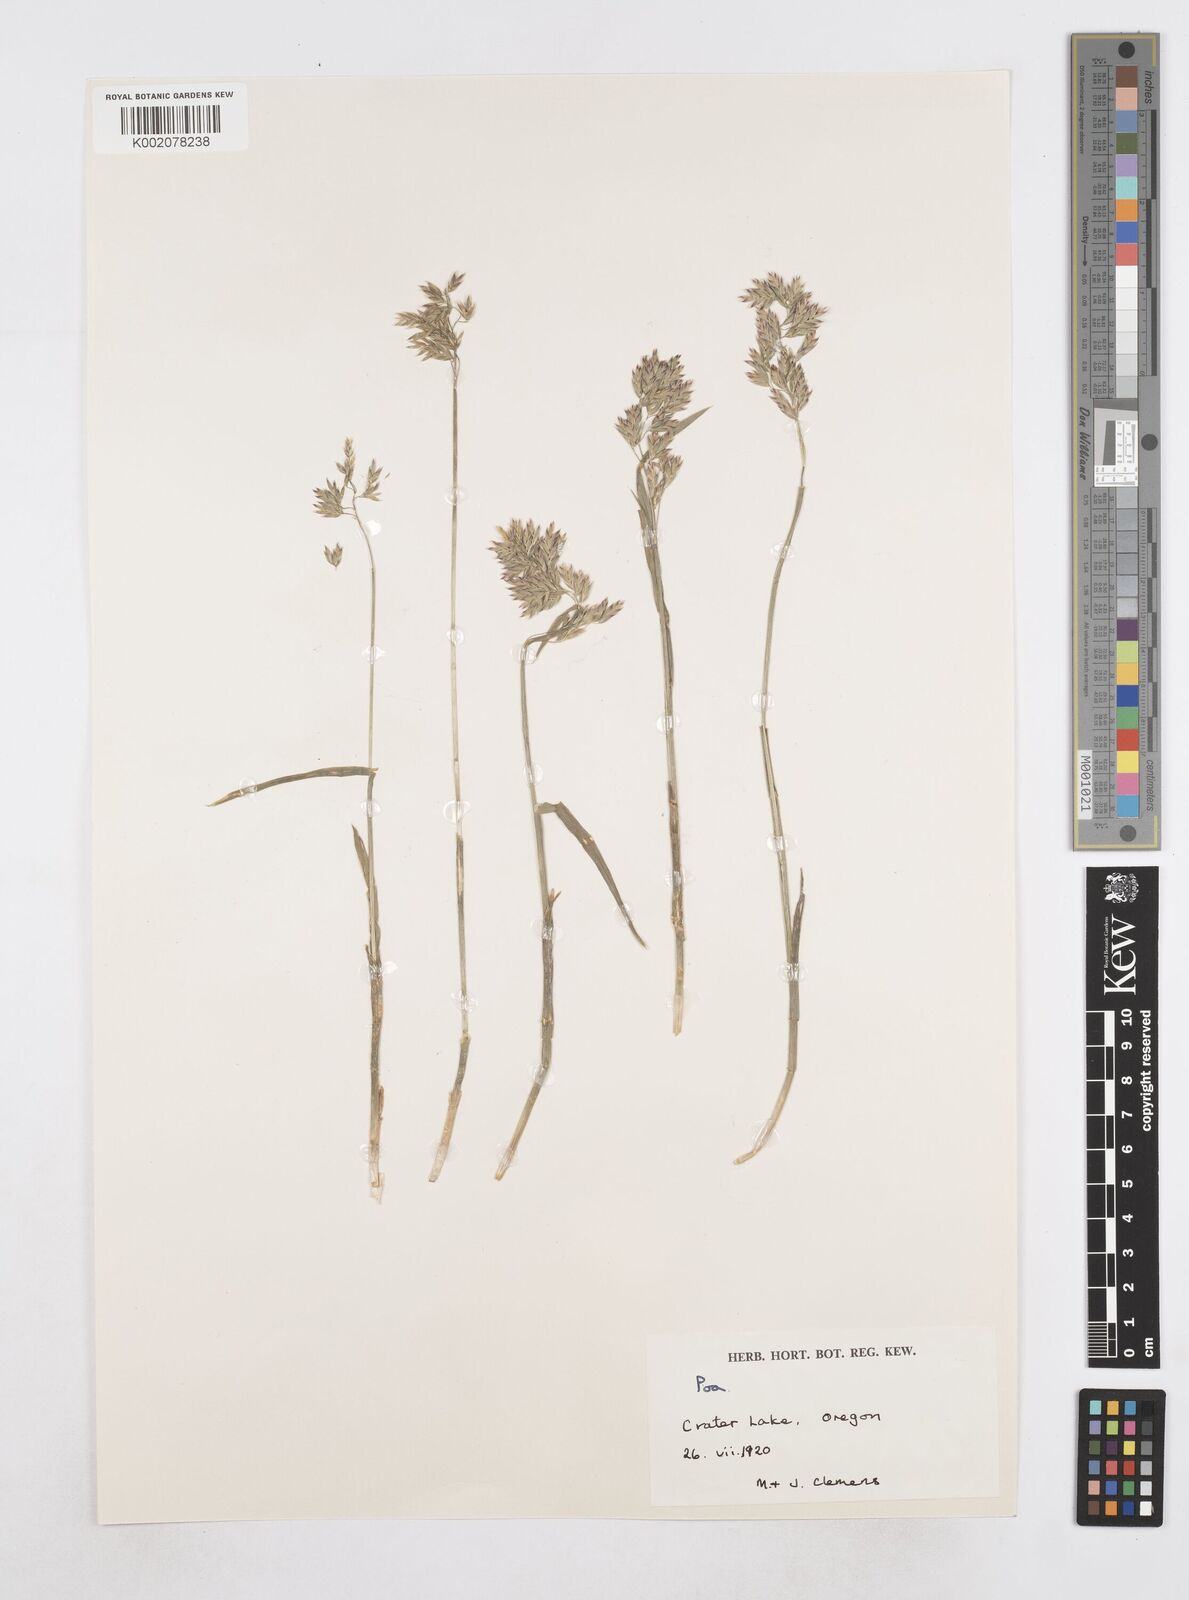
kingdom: Plantae
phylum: Tracheophyta
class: Liliopsida
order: Poales
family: Poaceae
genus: Poa
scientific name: Poa
